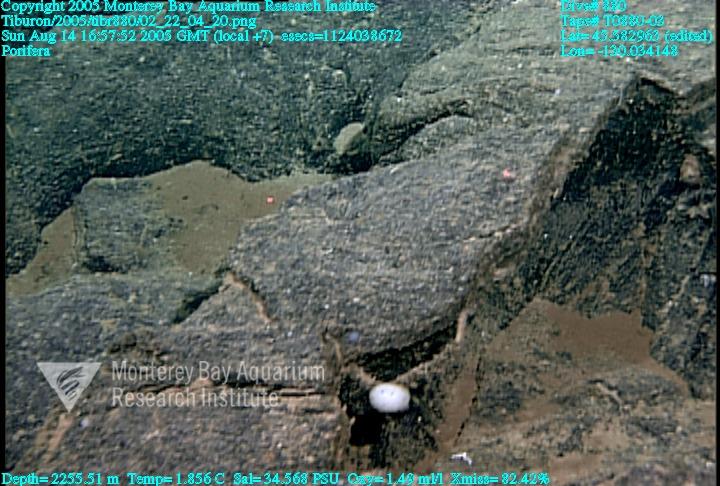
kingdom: Animalia
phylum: Porifera
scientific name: Porifera
